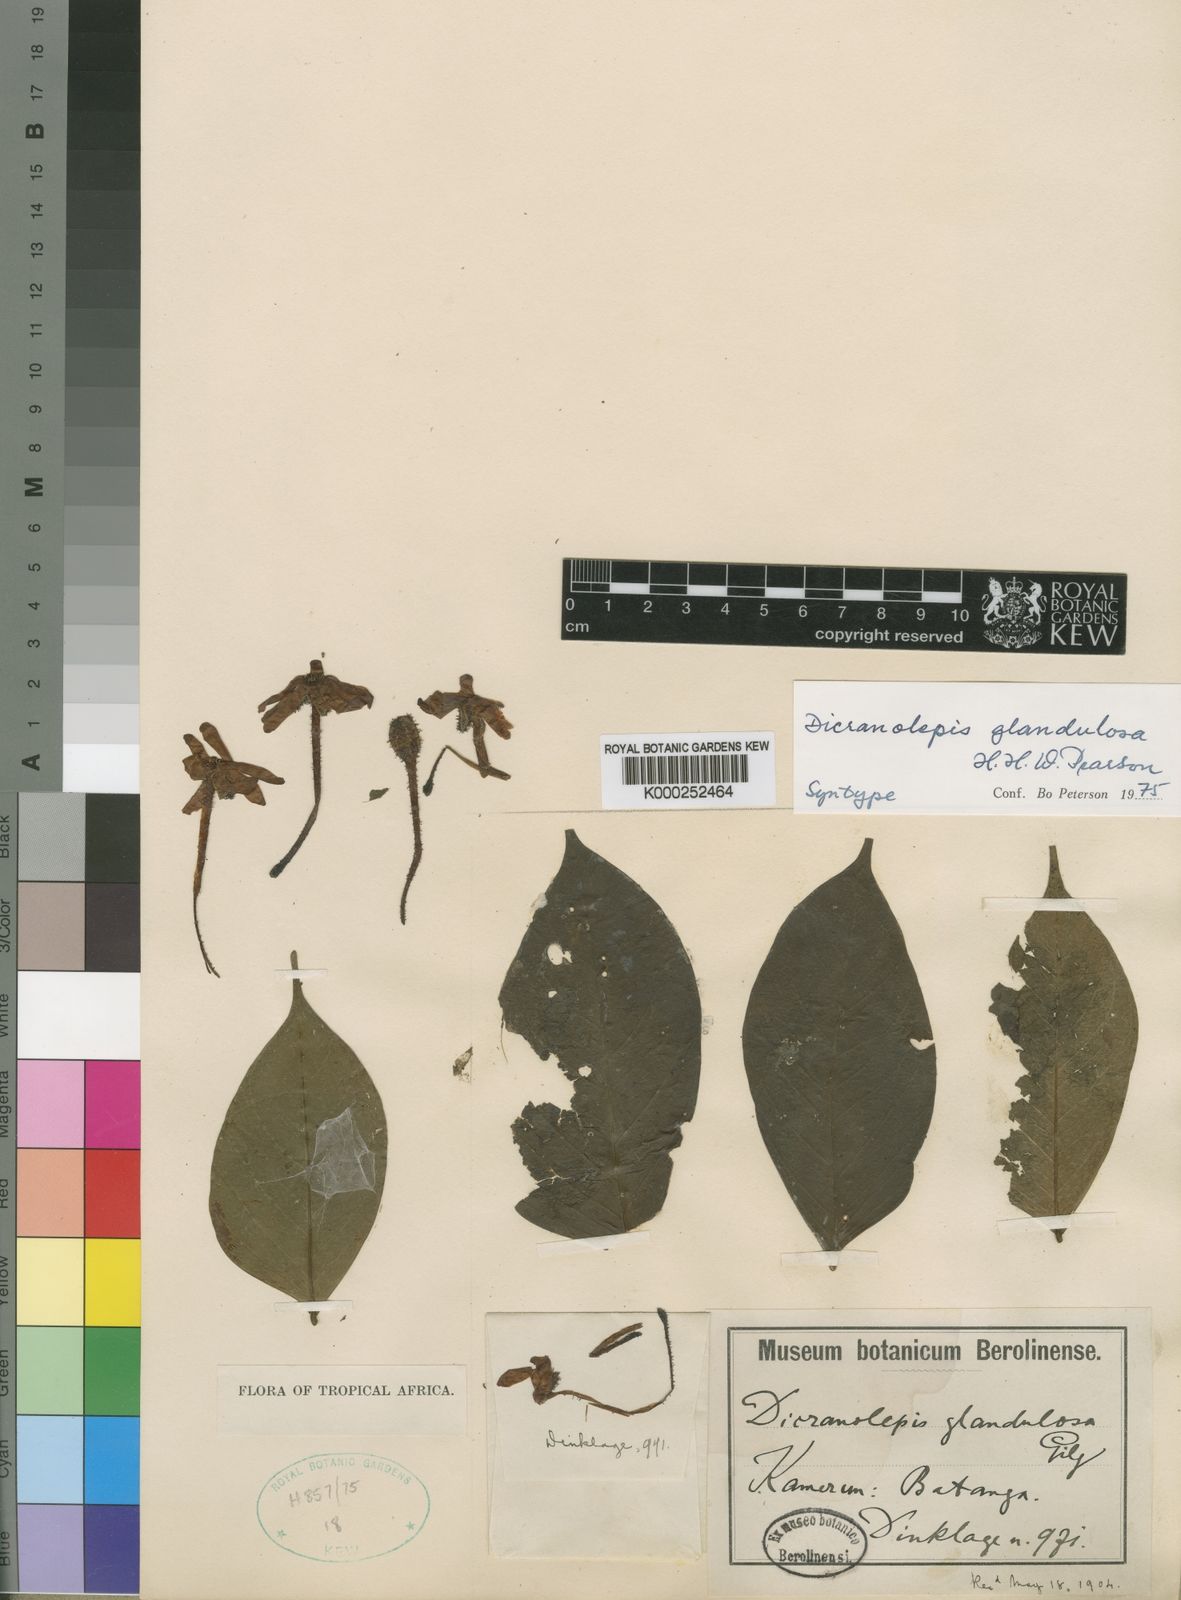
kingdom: Plantae
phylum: Tracheophyta
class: Magnoliopsida
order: Malvales
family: Thymelaeaceae
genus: Dicranolepis
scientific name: Dicranolepis glandulosa
